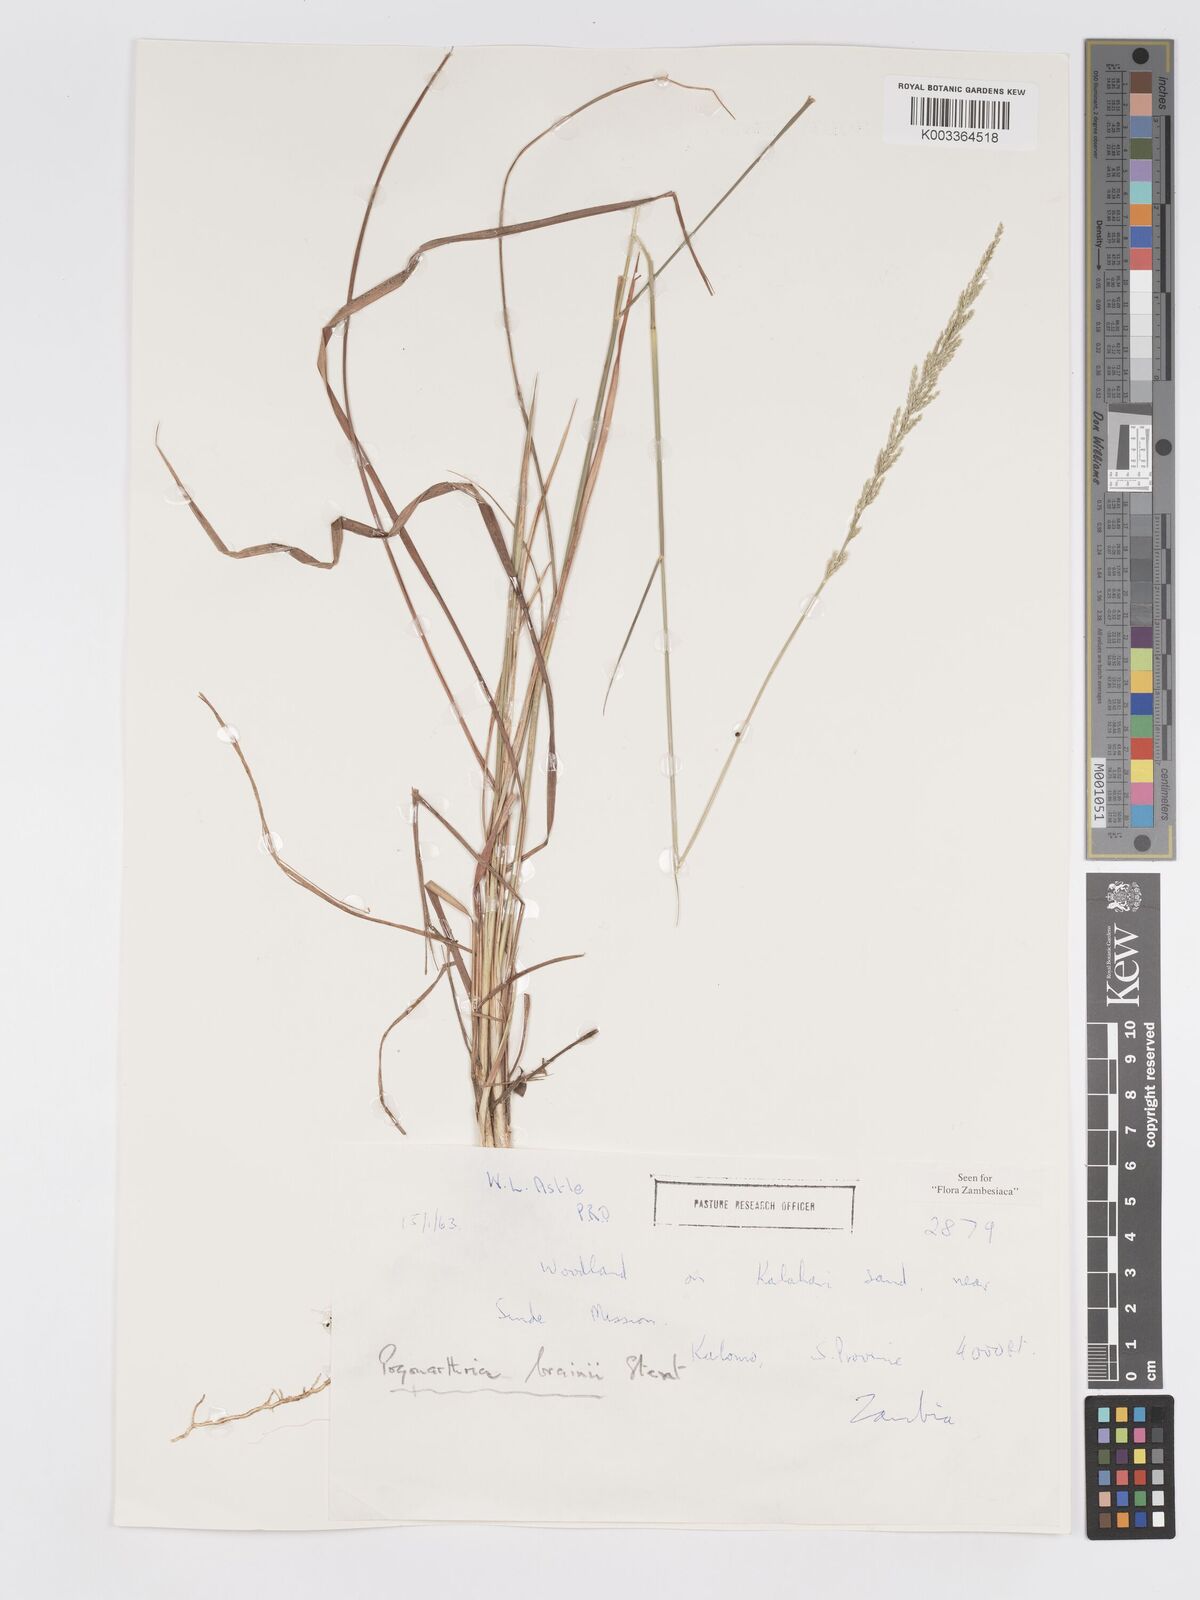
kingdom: Plantae
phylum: Tracheophyta
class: Liliopsida
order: Poales
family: Poaceae
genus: Eragrostis
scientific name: Eragrostis brainii
